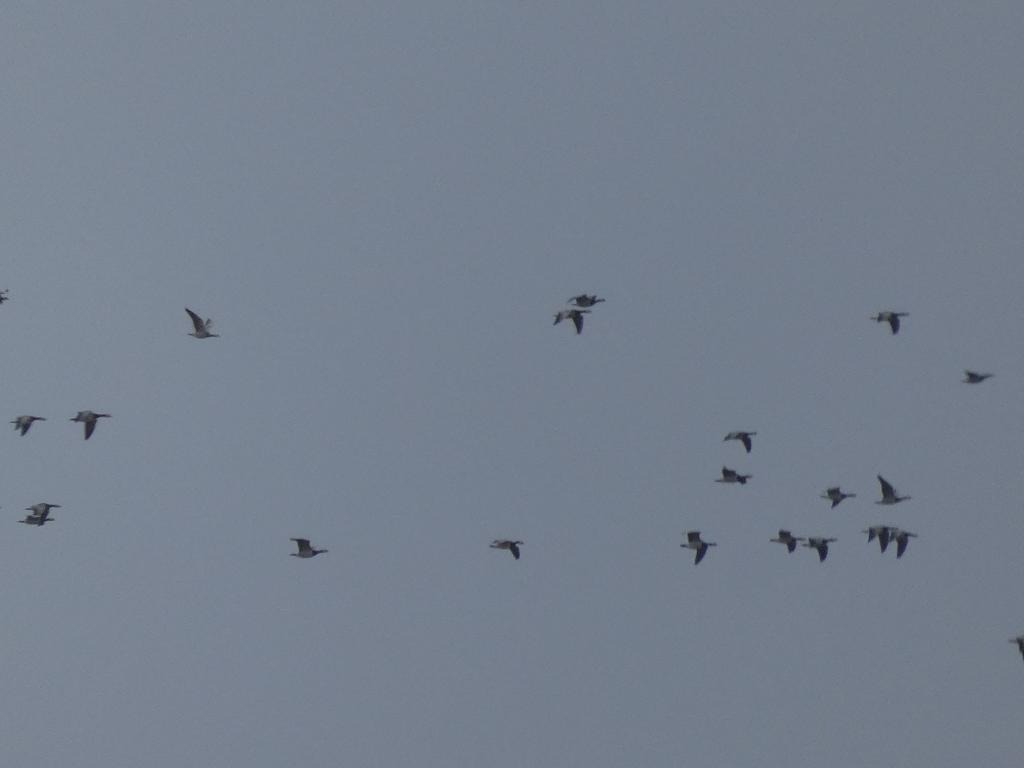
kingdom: Animalia
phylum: Chordata
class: Aves
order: Anseriformes
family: Anatidae
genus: Branta
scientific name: Branta leucopsis
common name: Bramgås
